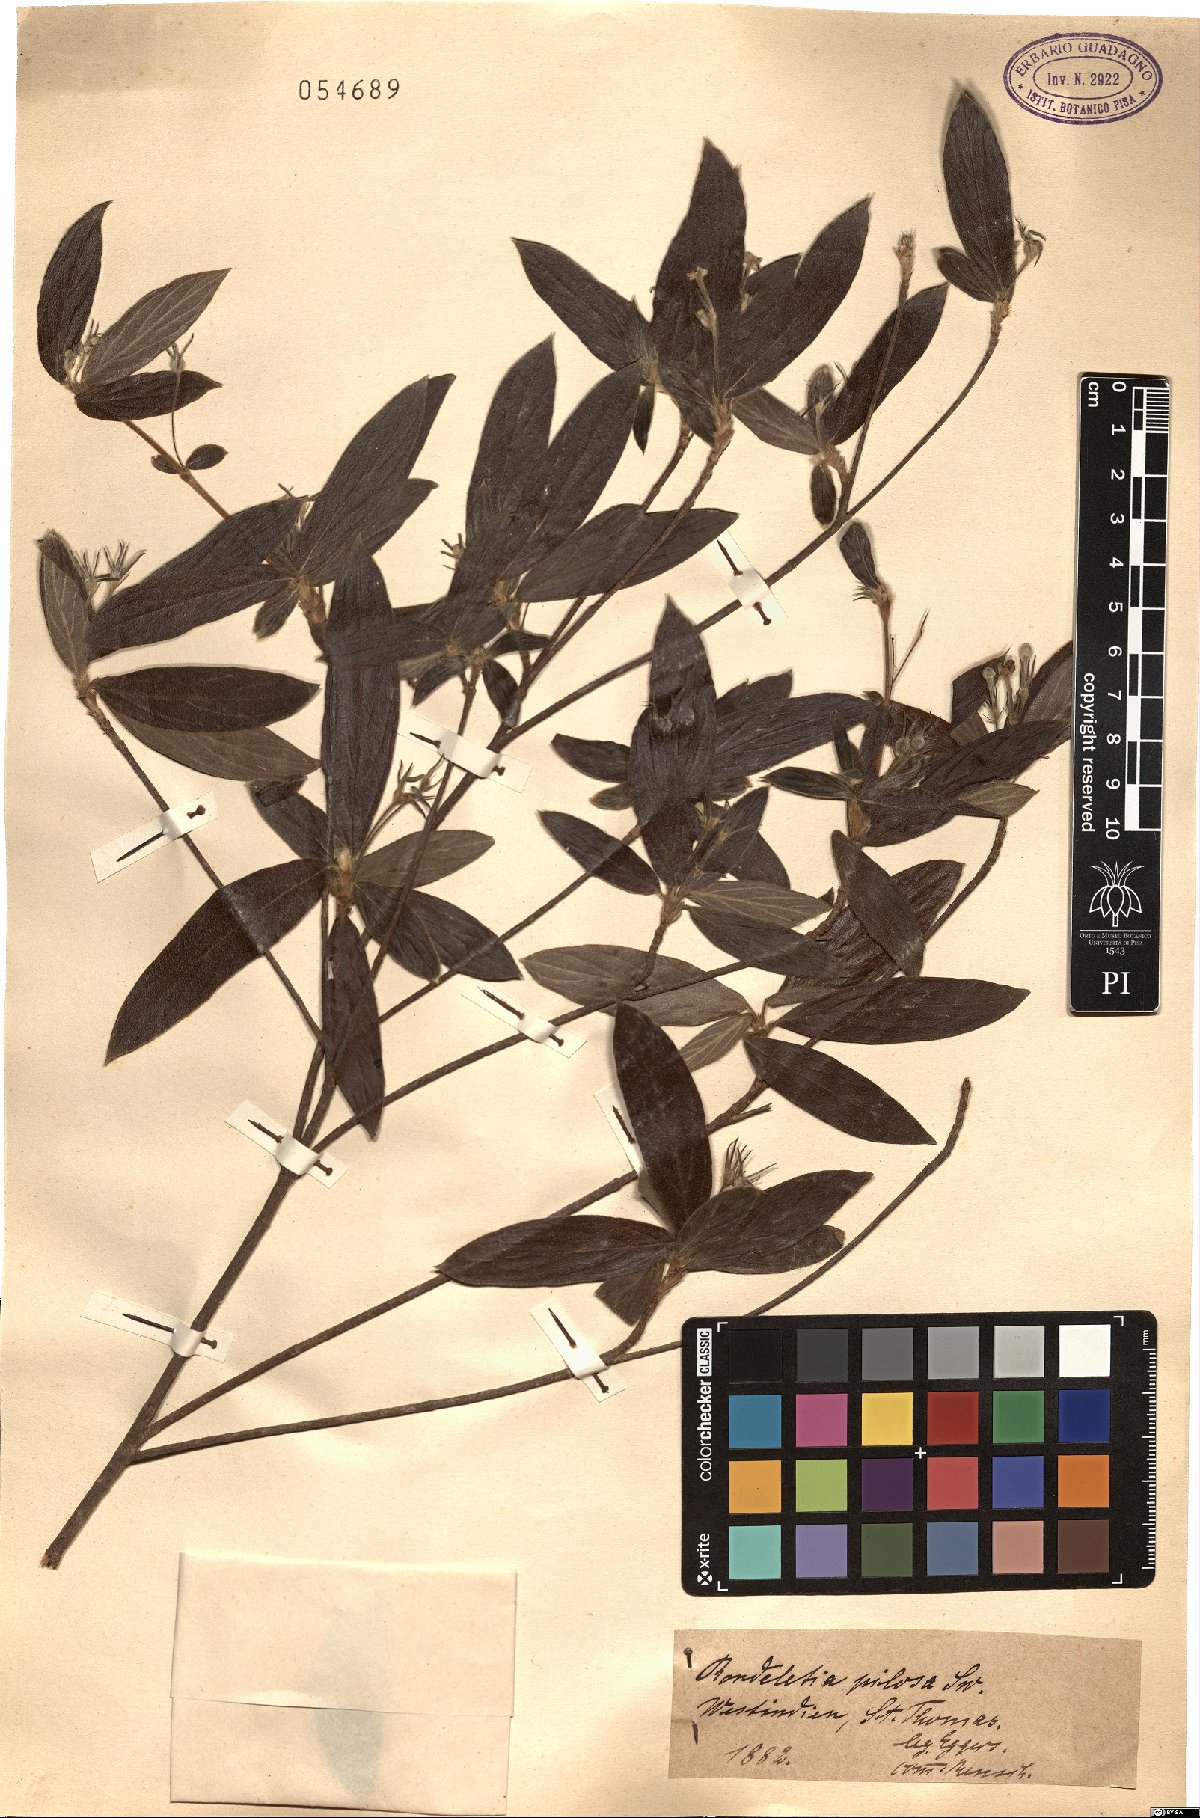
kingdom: Plantae
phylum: Tracheophyta
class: Magnoliopsida
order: Gentianales
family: Rubiaceae
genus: Rondeletia
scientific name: Rondeletia pilosa
